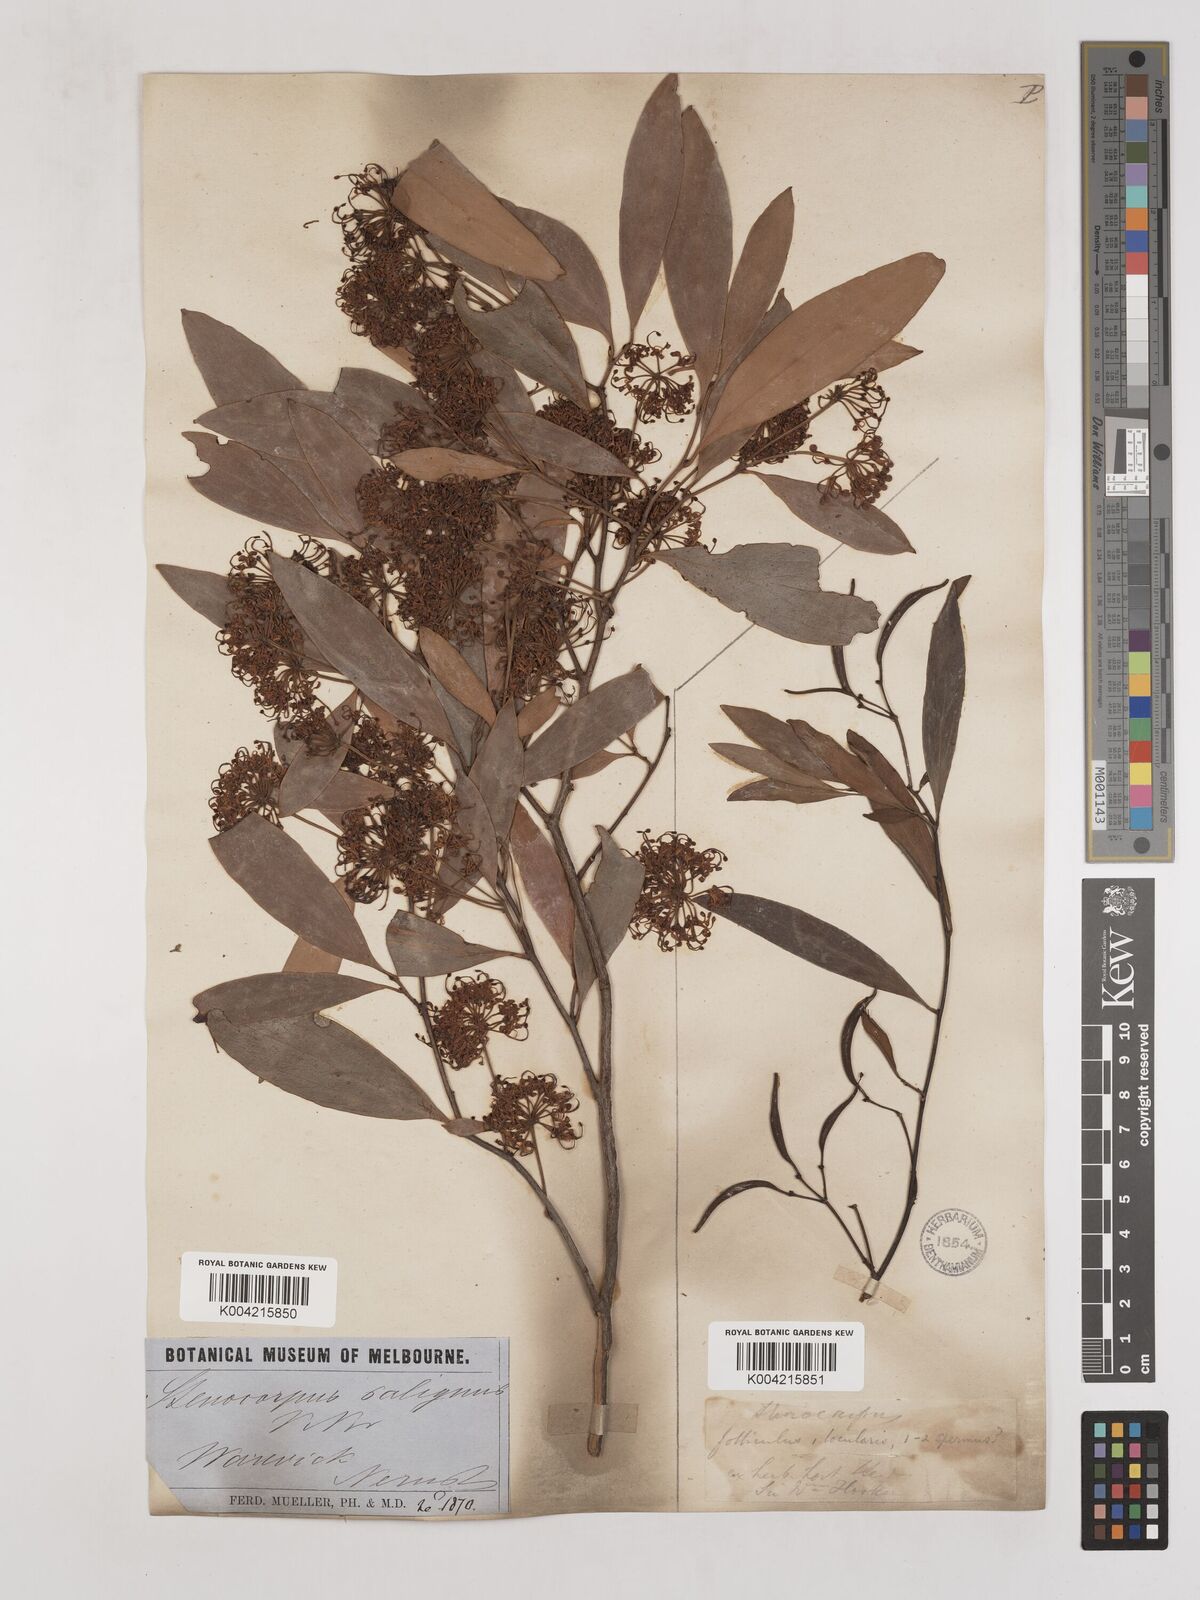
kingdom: Plantae
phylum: Tracheophyta
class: Magnoliopsida
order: Proteales
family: Proteaceae
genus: Stenocarpus
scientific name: Stenocarpus salignus
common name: Red silky-oak
